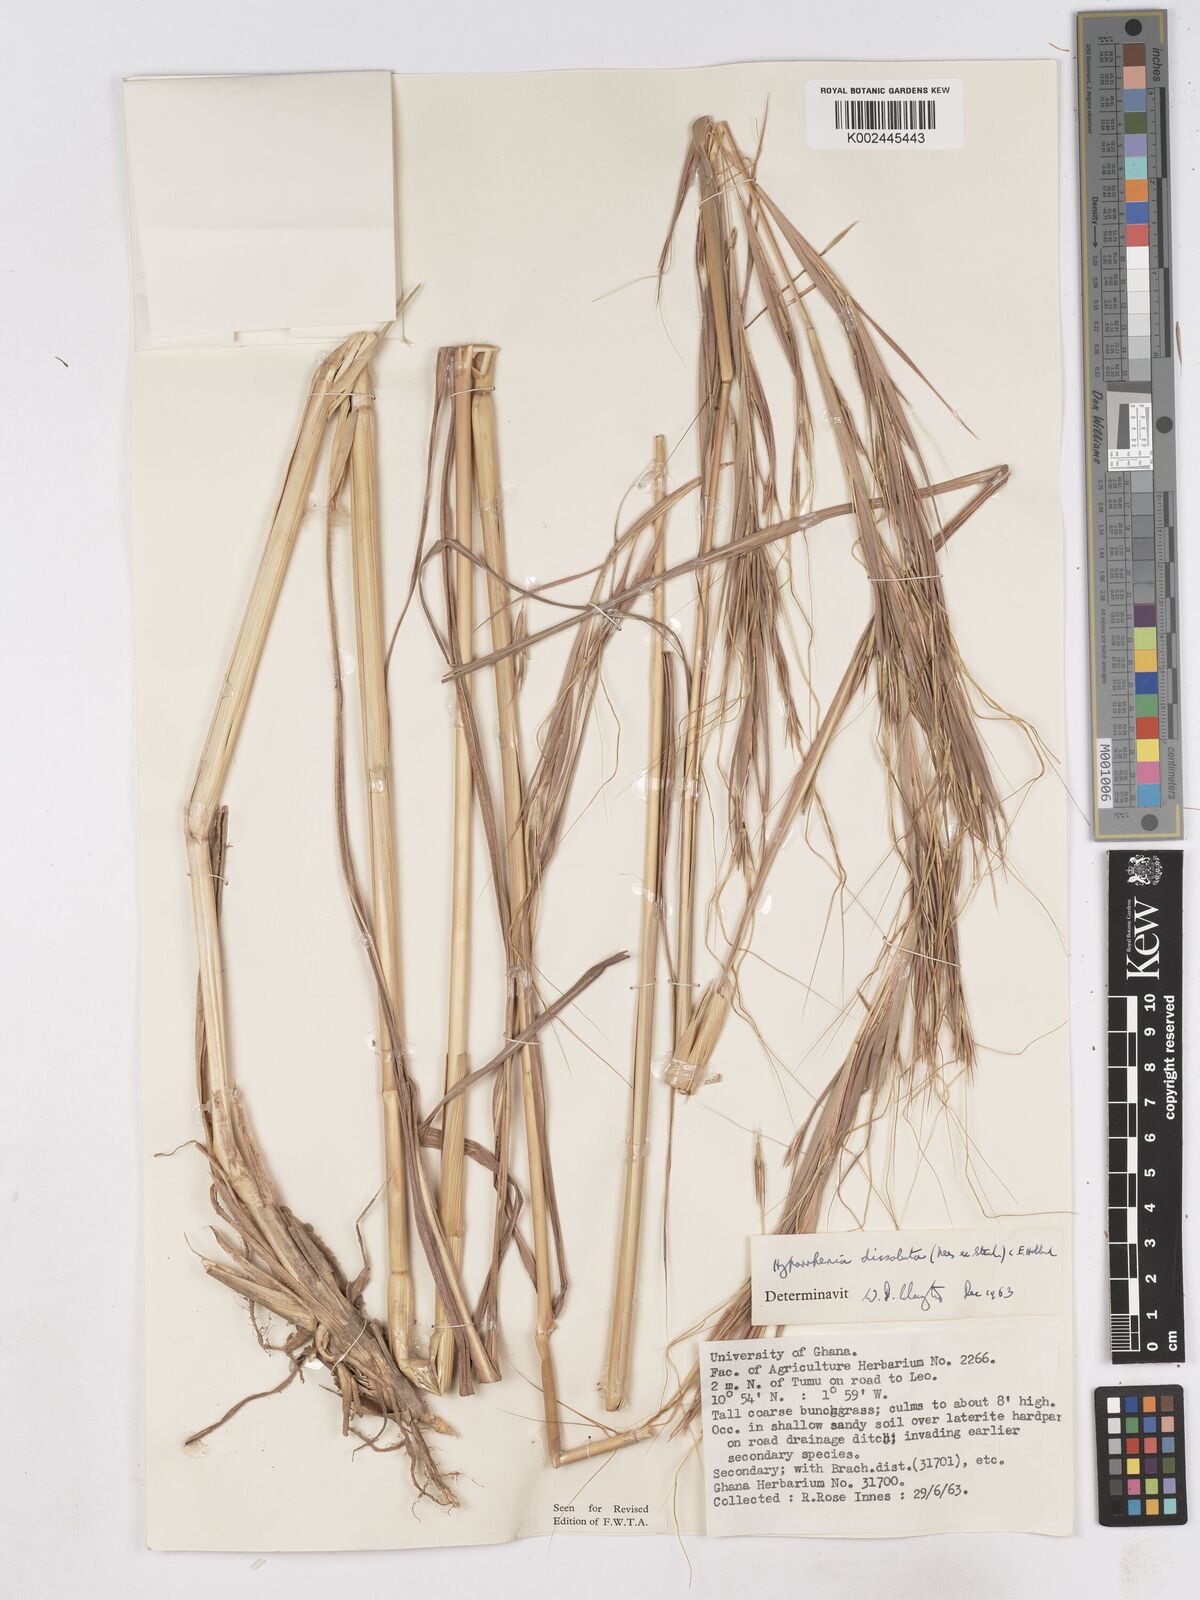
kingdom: Plantae
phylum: Tracheophyta
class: Liliopsida
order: Poales
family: Poaceae
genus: Hyperthelia
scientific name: Hyperthelia dissoluta
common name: Yellow thatching grass
